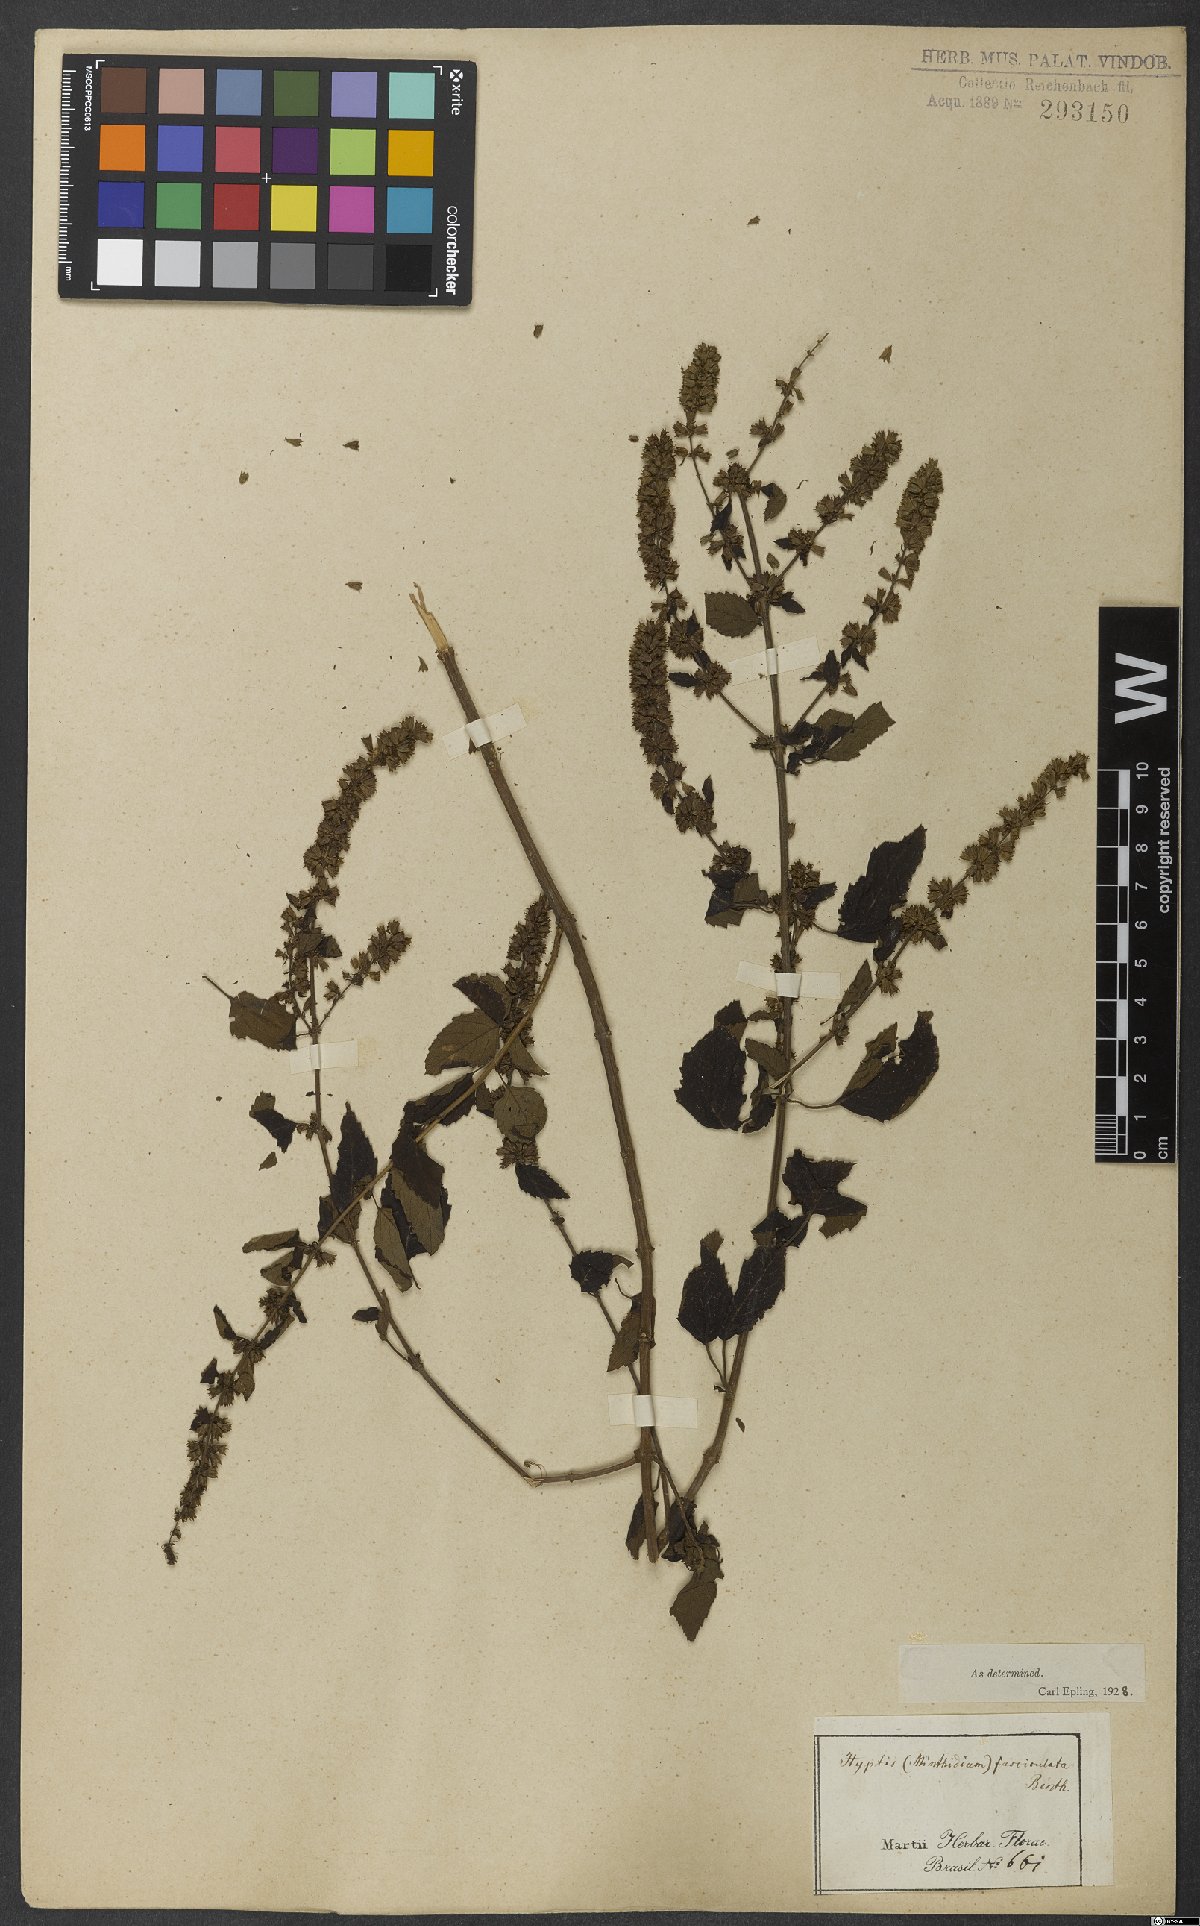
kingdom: Plantae
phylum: Tracheophyta
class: Magnoliopsida
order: Lamiales
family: Lamiaceae
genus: Condea
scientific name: Condea undulata
